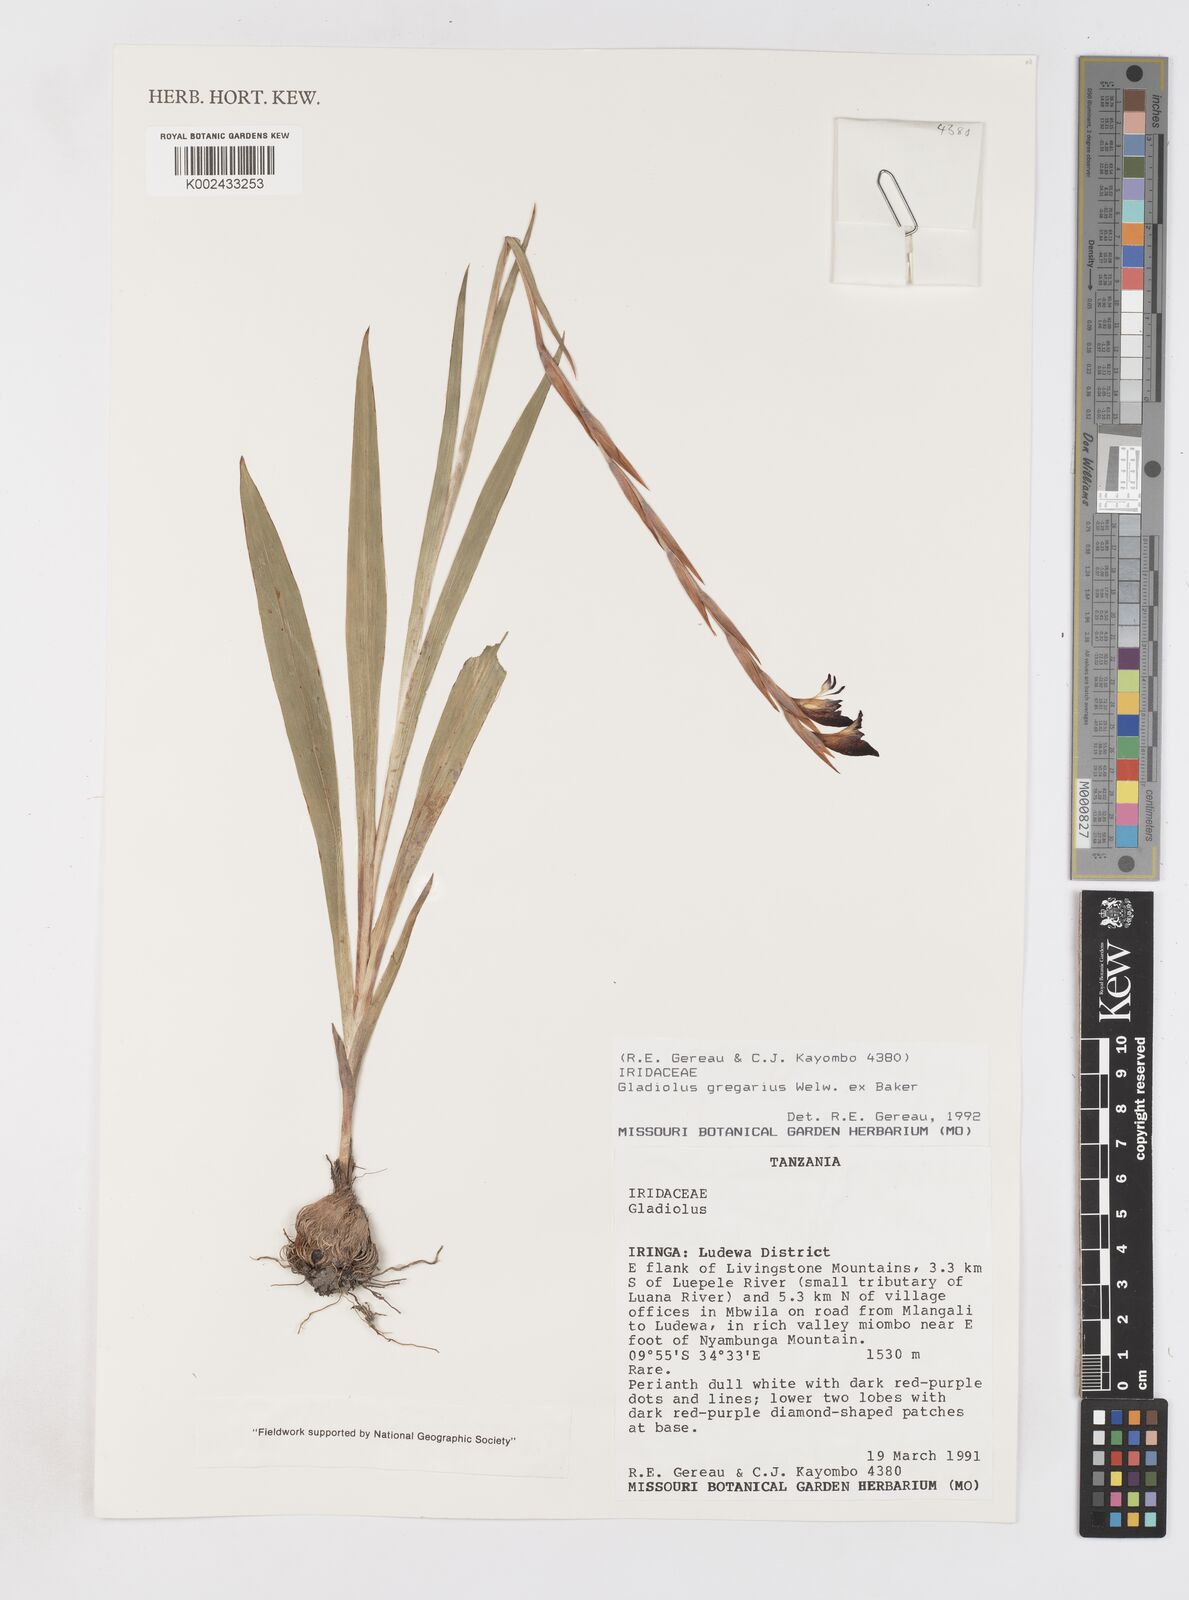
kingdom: Plantae
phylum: Tracheophyta
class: Liliopsida
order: Asparagales
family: Iridaceae
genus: Gladiolus
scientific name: Gladiolus gregarius
